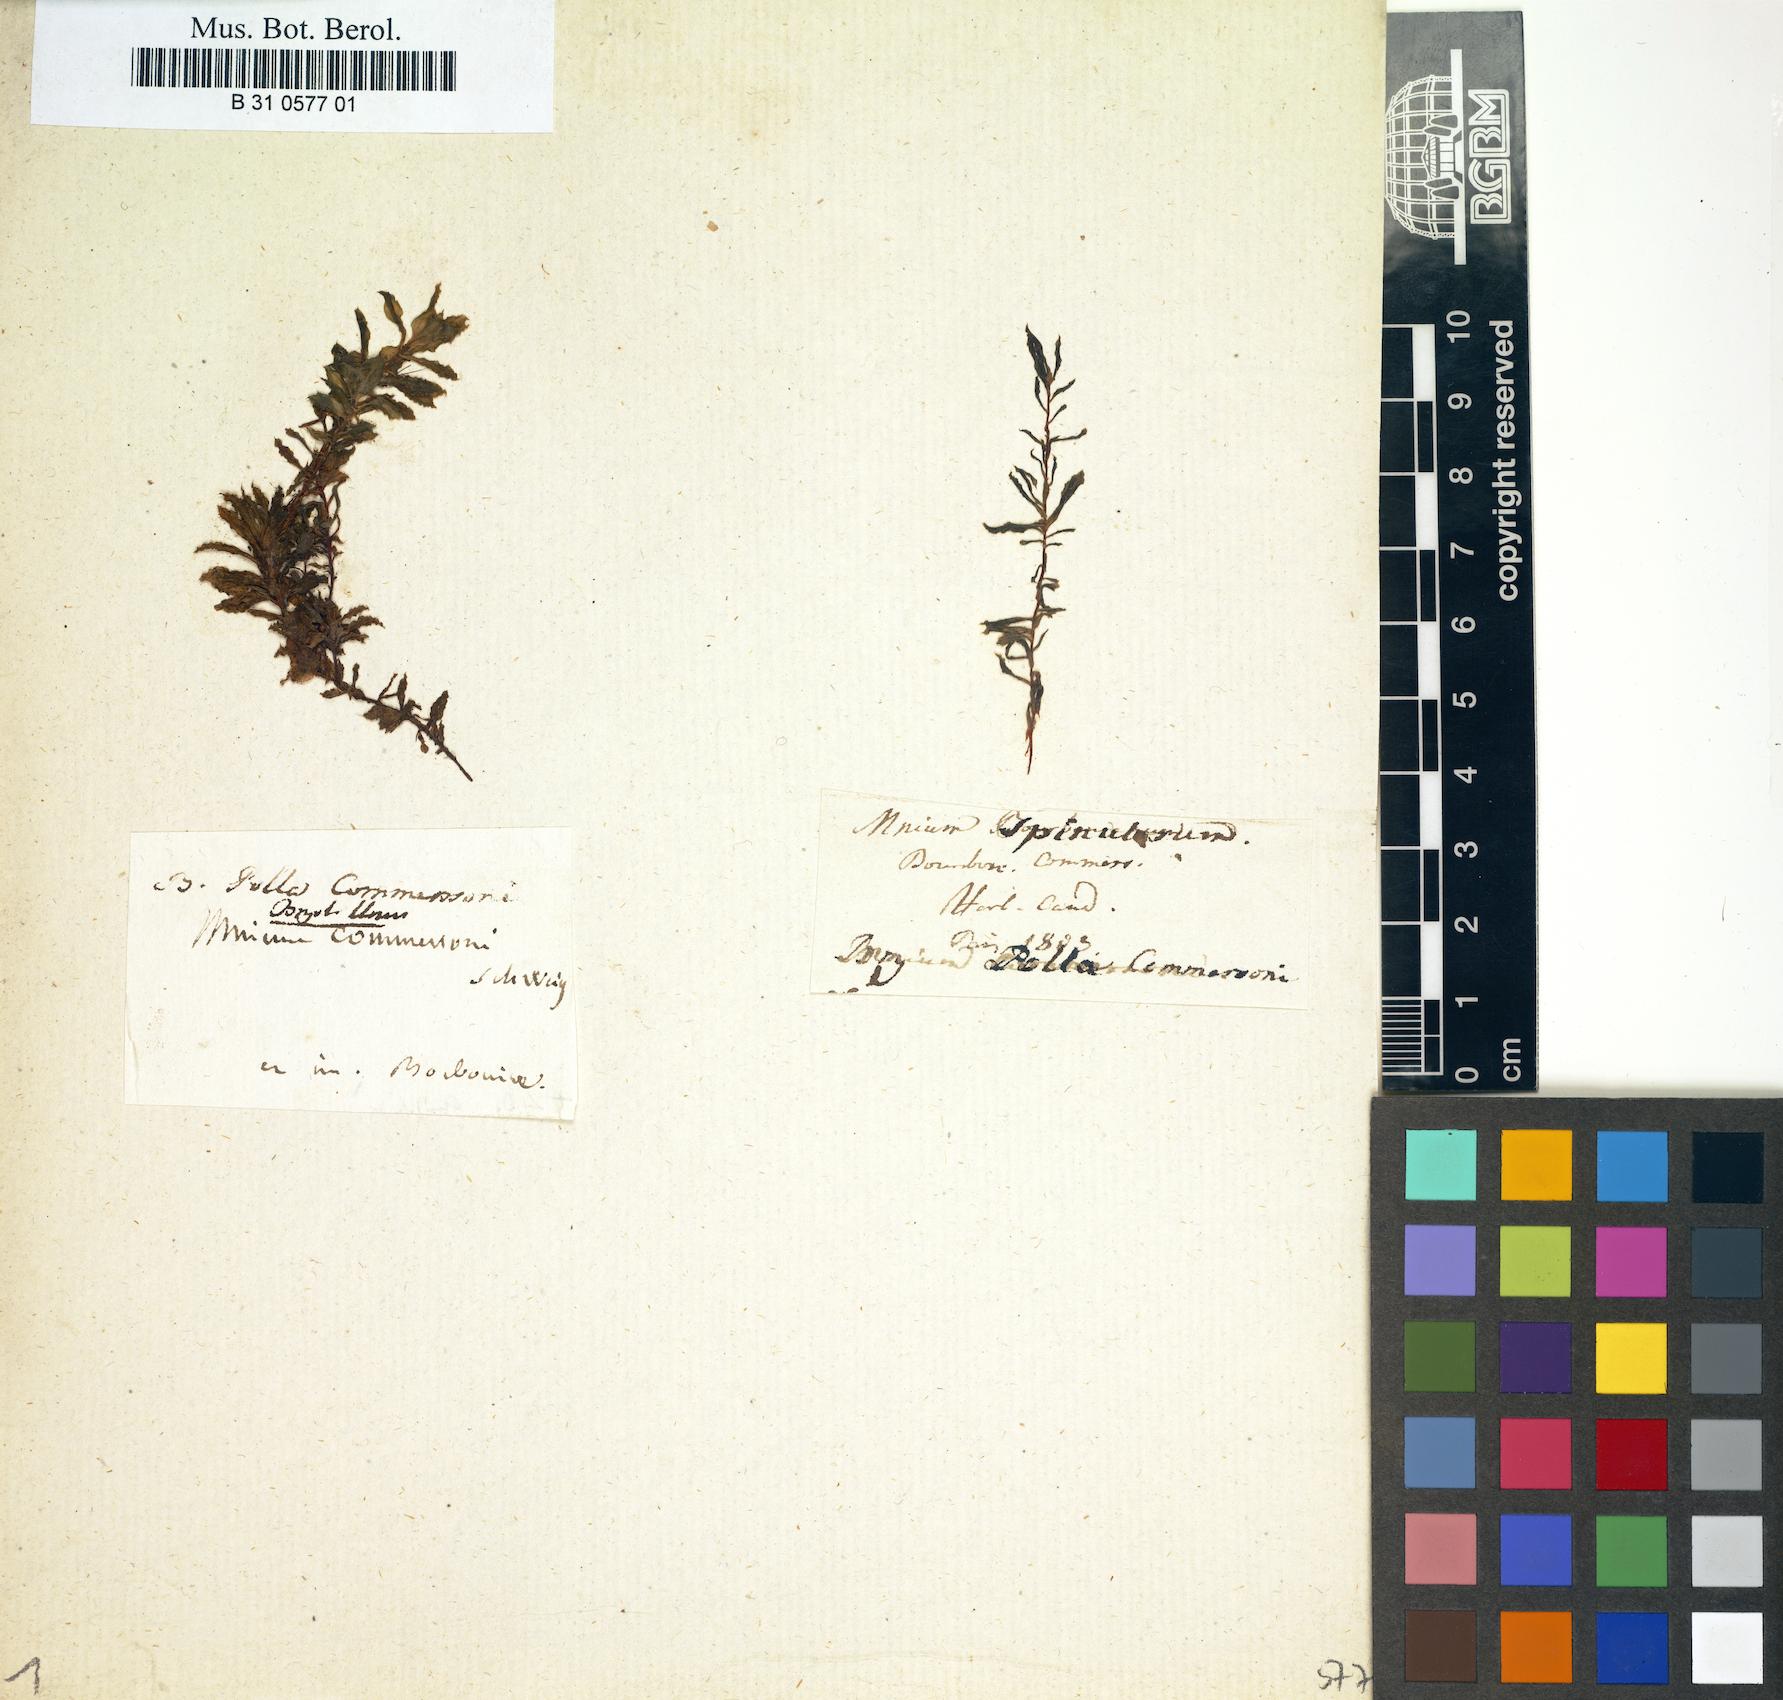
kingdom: Plantae
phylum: Bryophyta
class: Bryopsida
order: Bryales
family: Bryaceae
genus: Rhodobryum
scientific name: Rhodobryum commersonii
